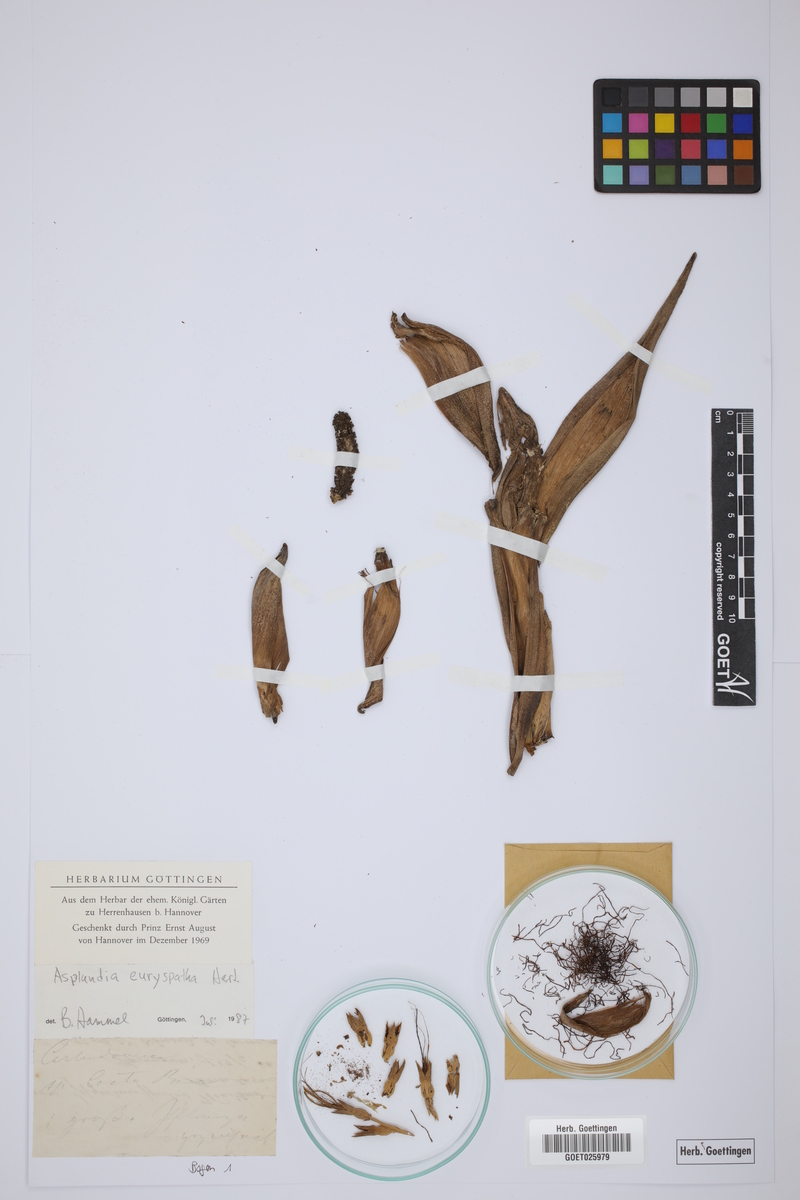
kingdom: Plantae
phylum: Tracheophyta
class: Liliopsida
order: Pandanales
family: Cyclanthaceae
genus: Asplundia
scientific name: Asplundia euryspatha
